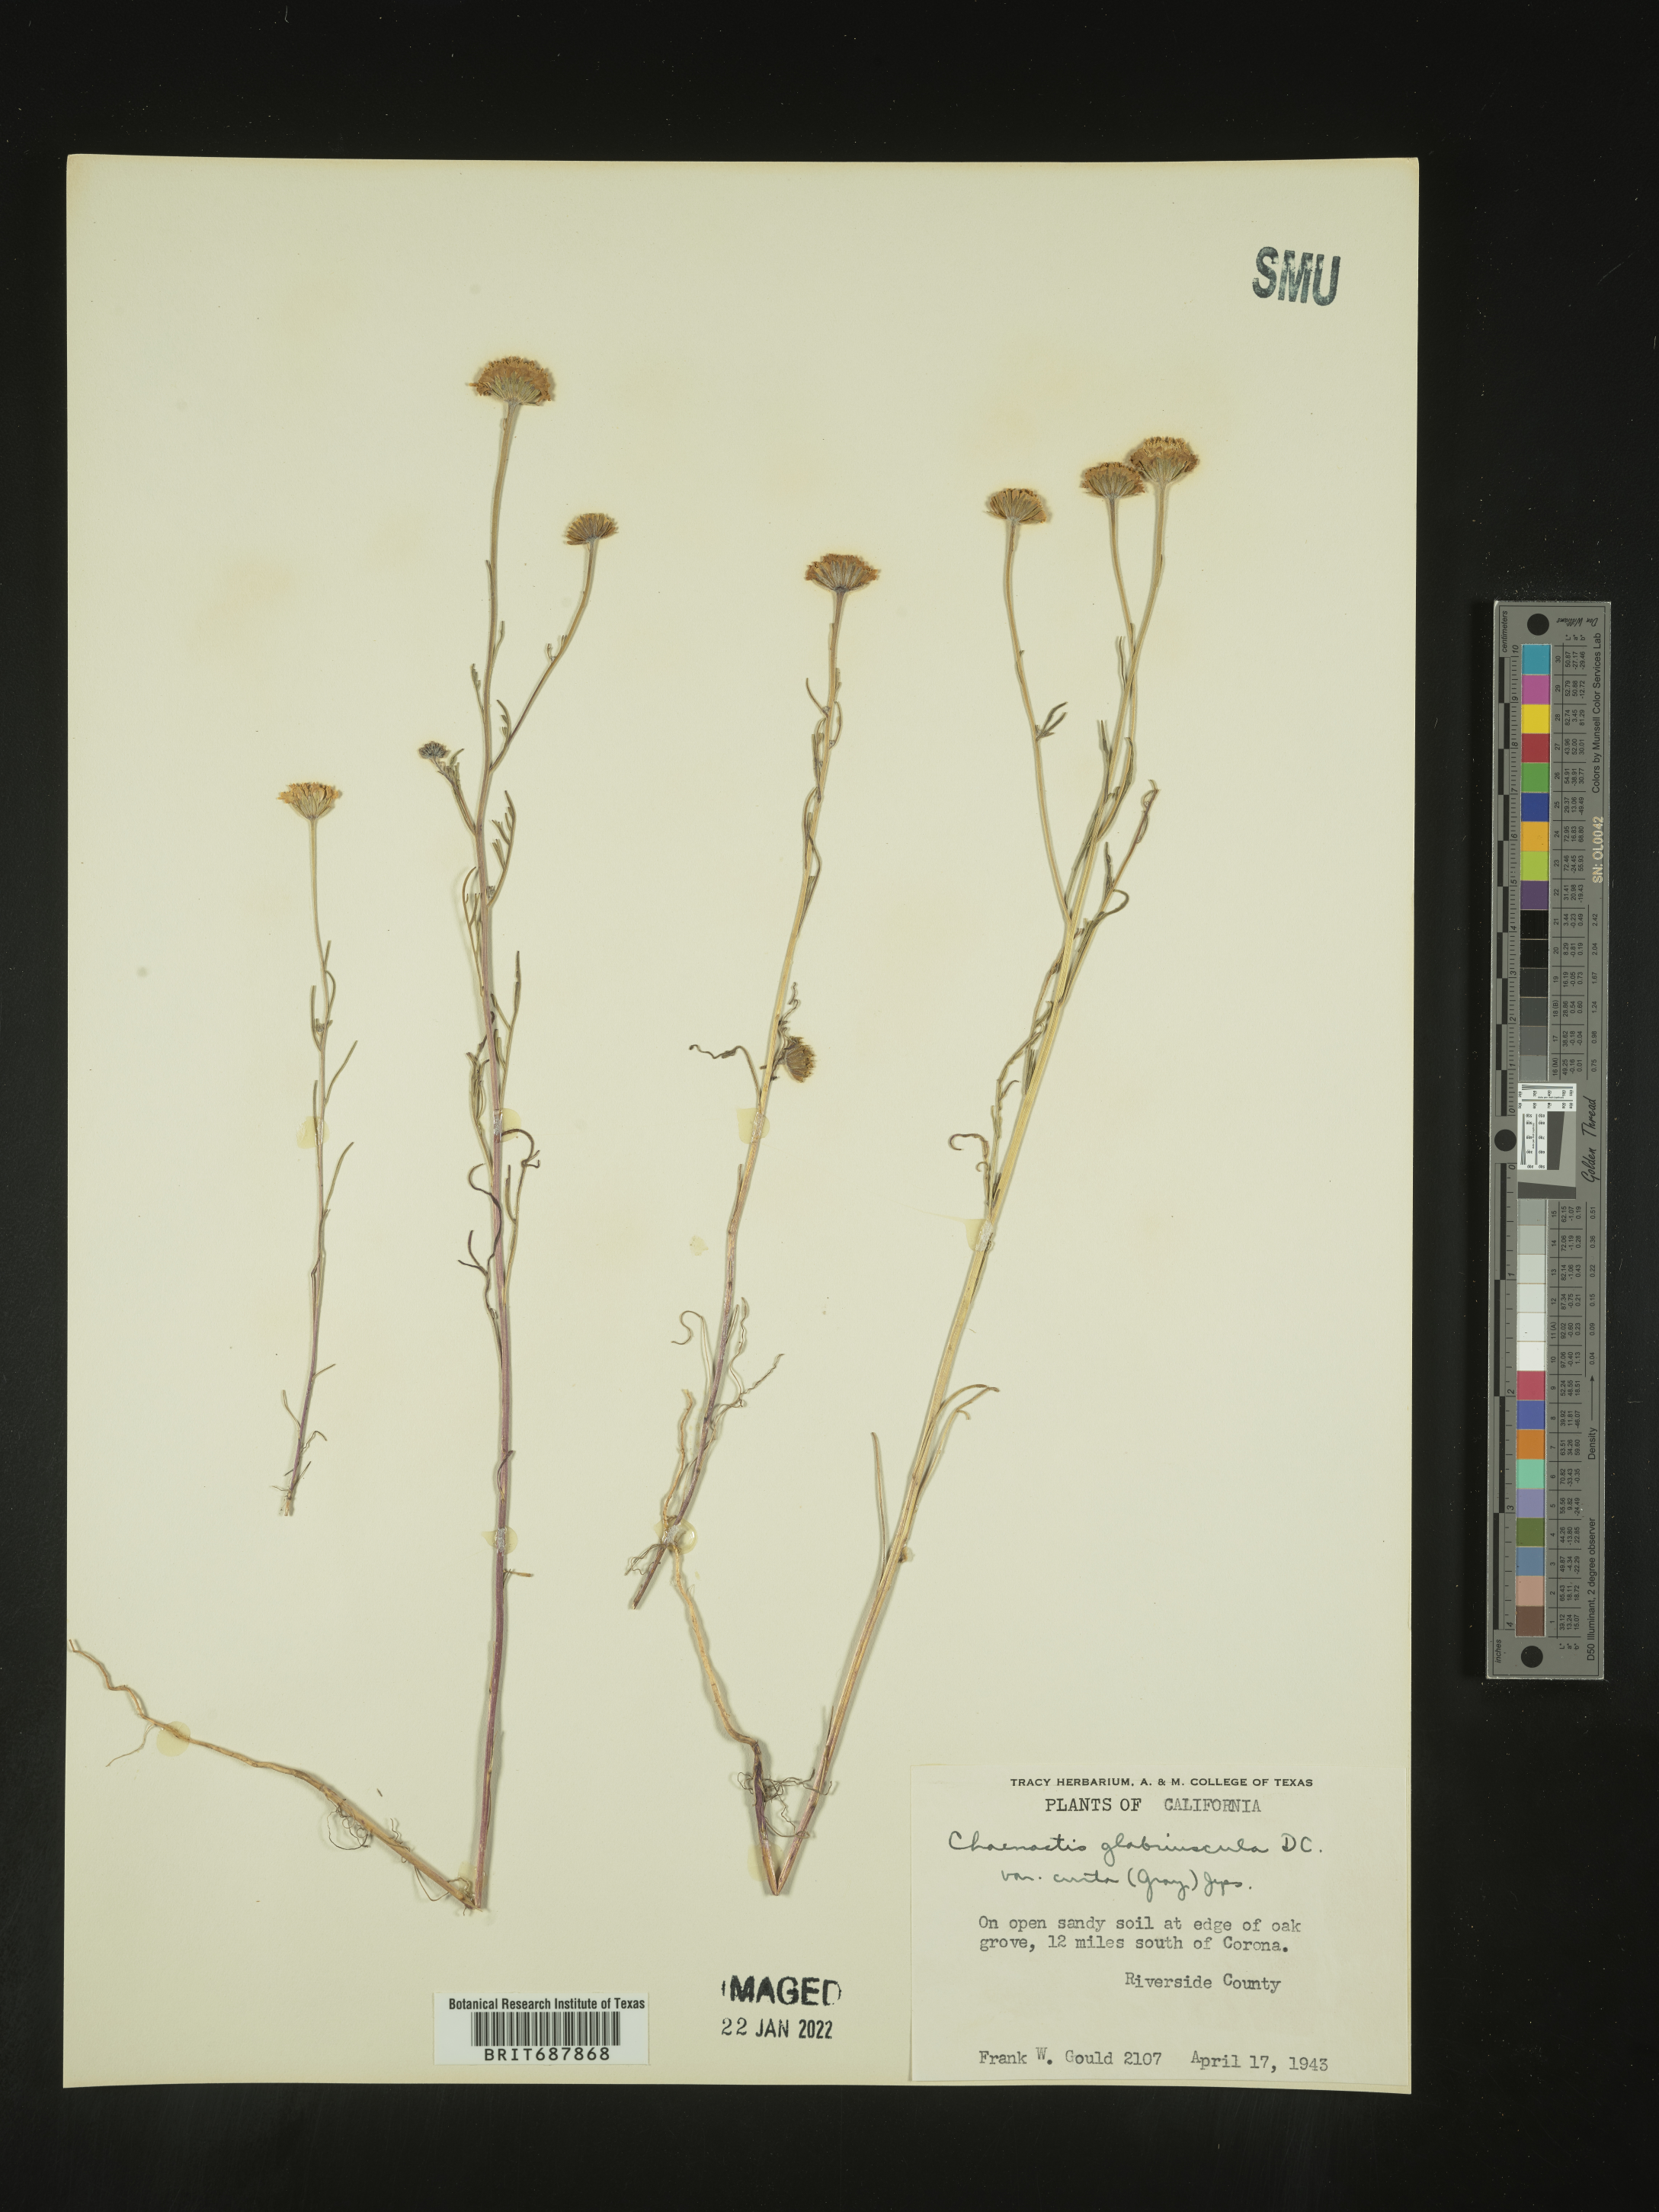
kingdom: Plantae
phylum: Tracheophyta
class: Magnoliopsida
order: Asterales
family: Asteraceae
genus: Chaenactis
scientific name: Chaenactis glabriuscula
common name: Yellow pincushion
